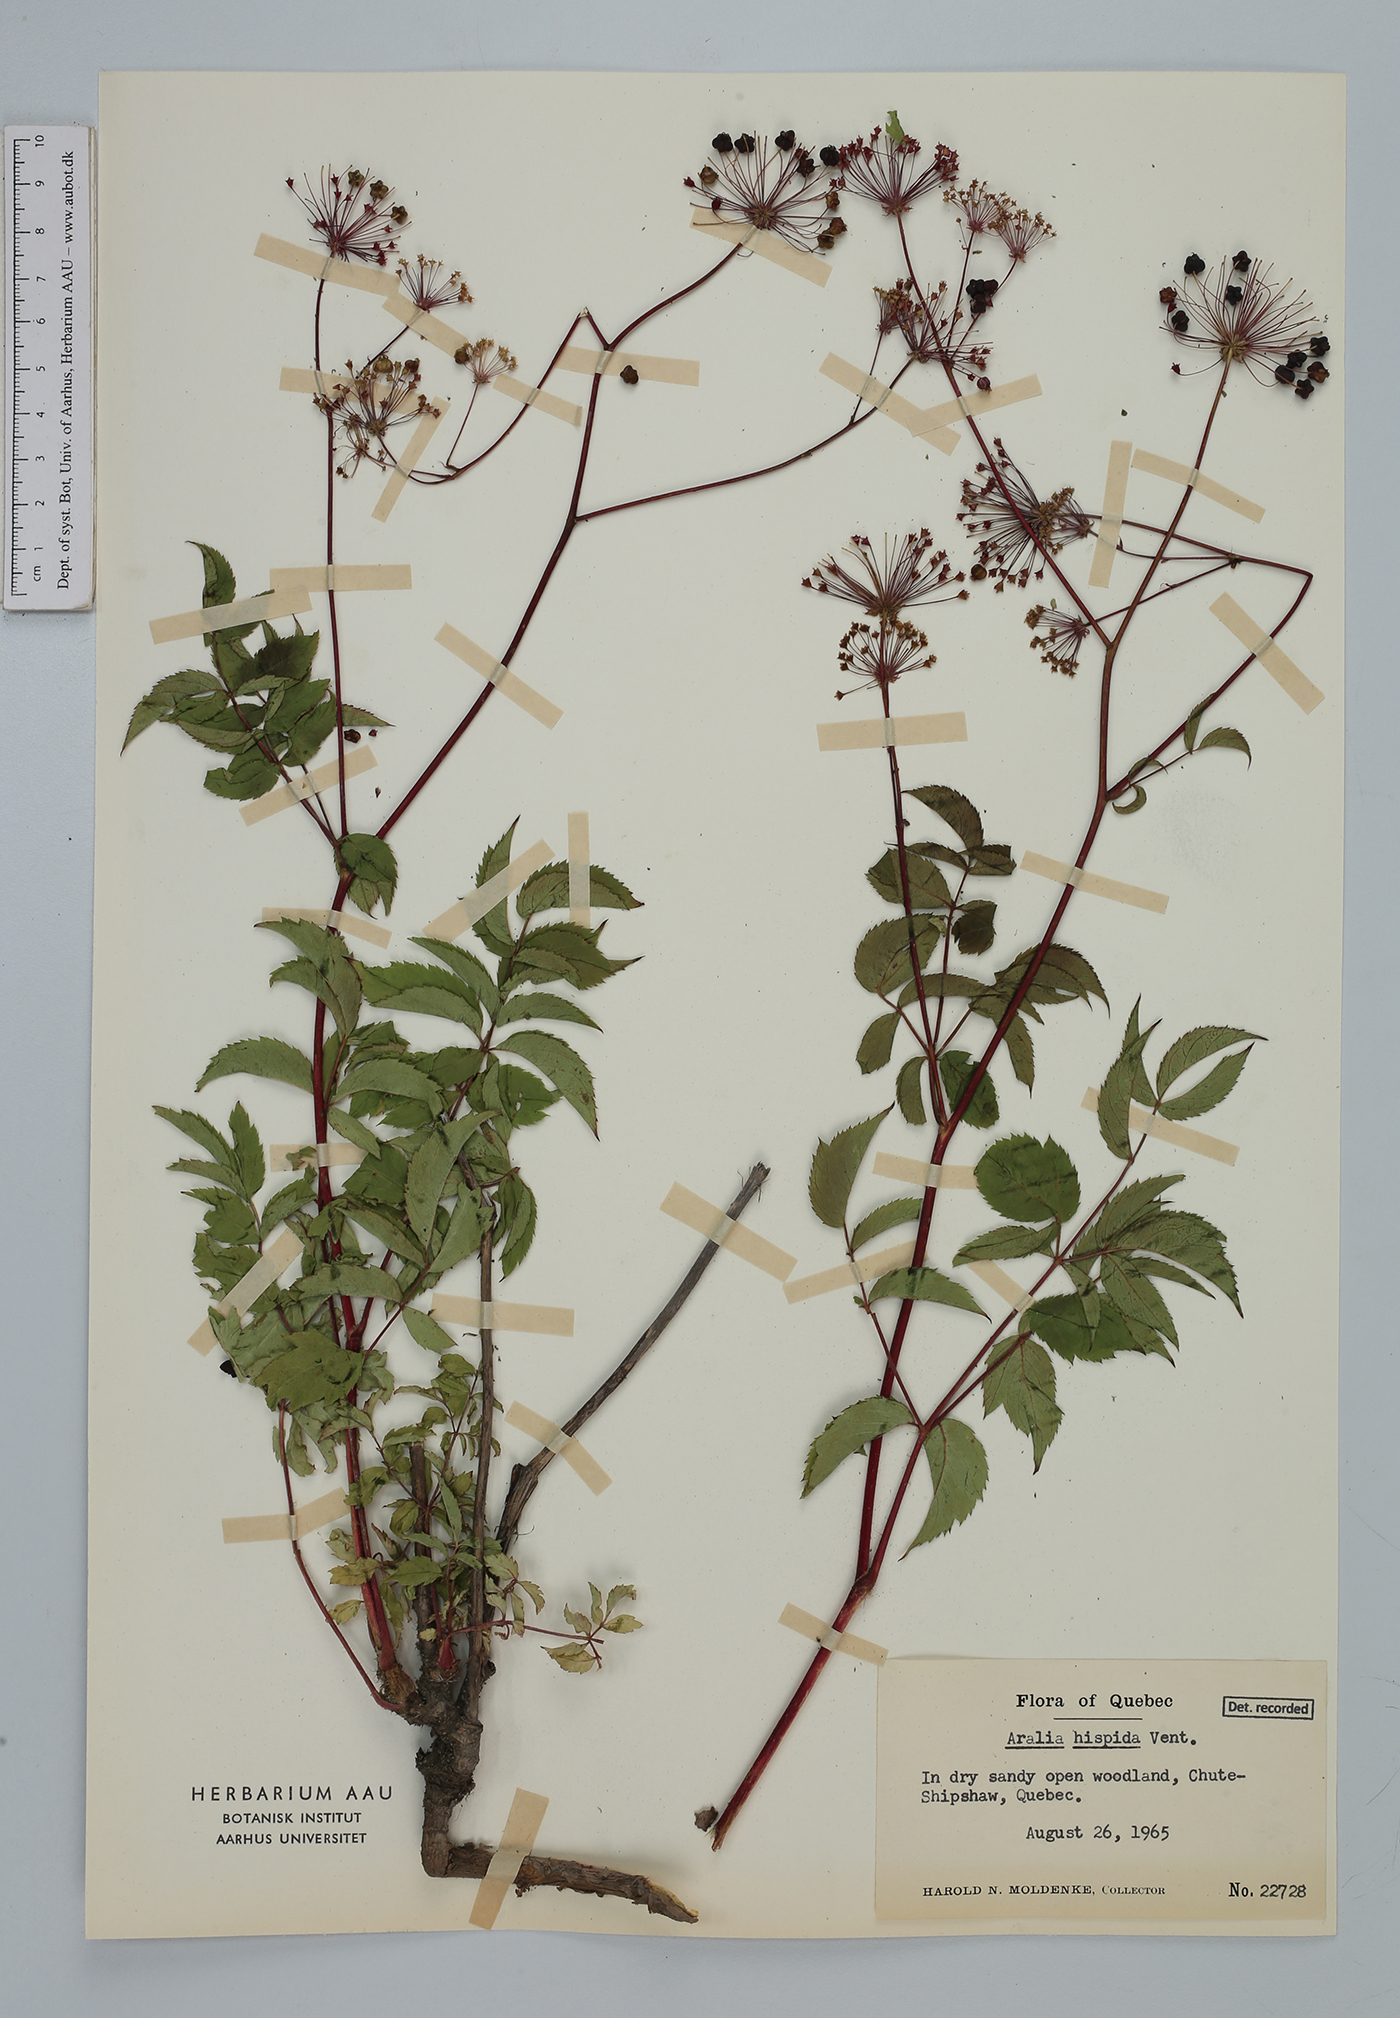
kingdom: Plantae
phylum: Tracheophyta
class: Magnoliopsida
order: Apiales
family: Araliaceae
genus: Aralia
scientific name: Aralia hispida
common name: Bristly sarsaparilla
